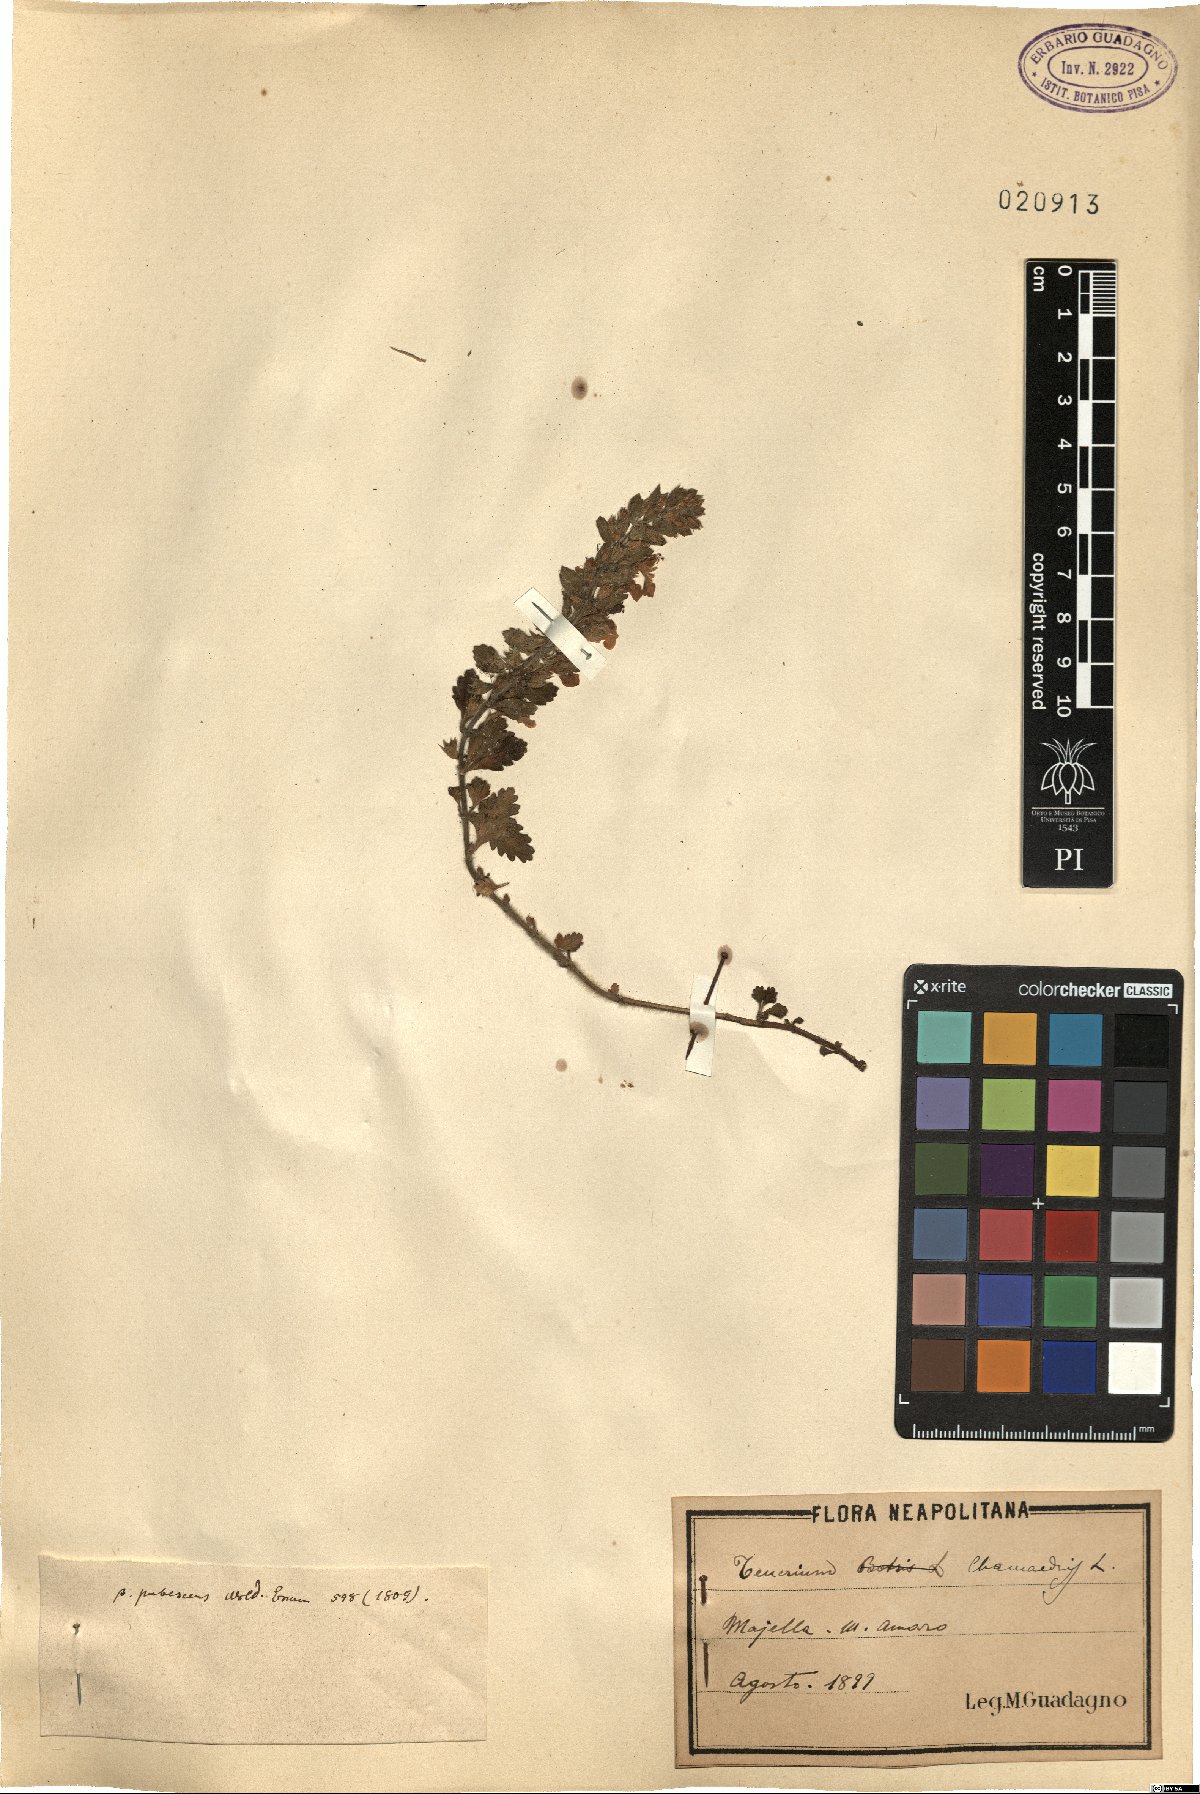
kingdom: Plantae
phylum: Tracheophyta
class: Magnoliopsida
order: Lamiales
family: Lamiaceae
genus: Teucrium
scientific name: Teucrium chamaedrys
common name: Wall germander
